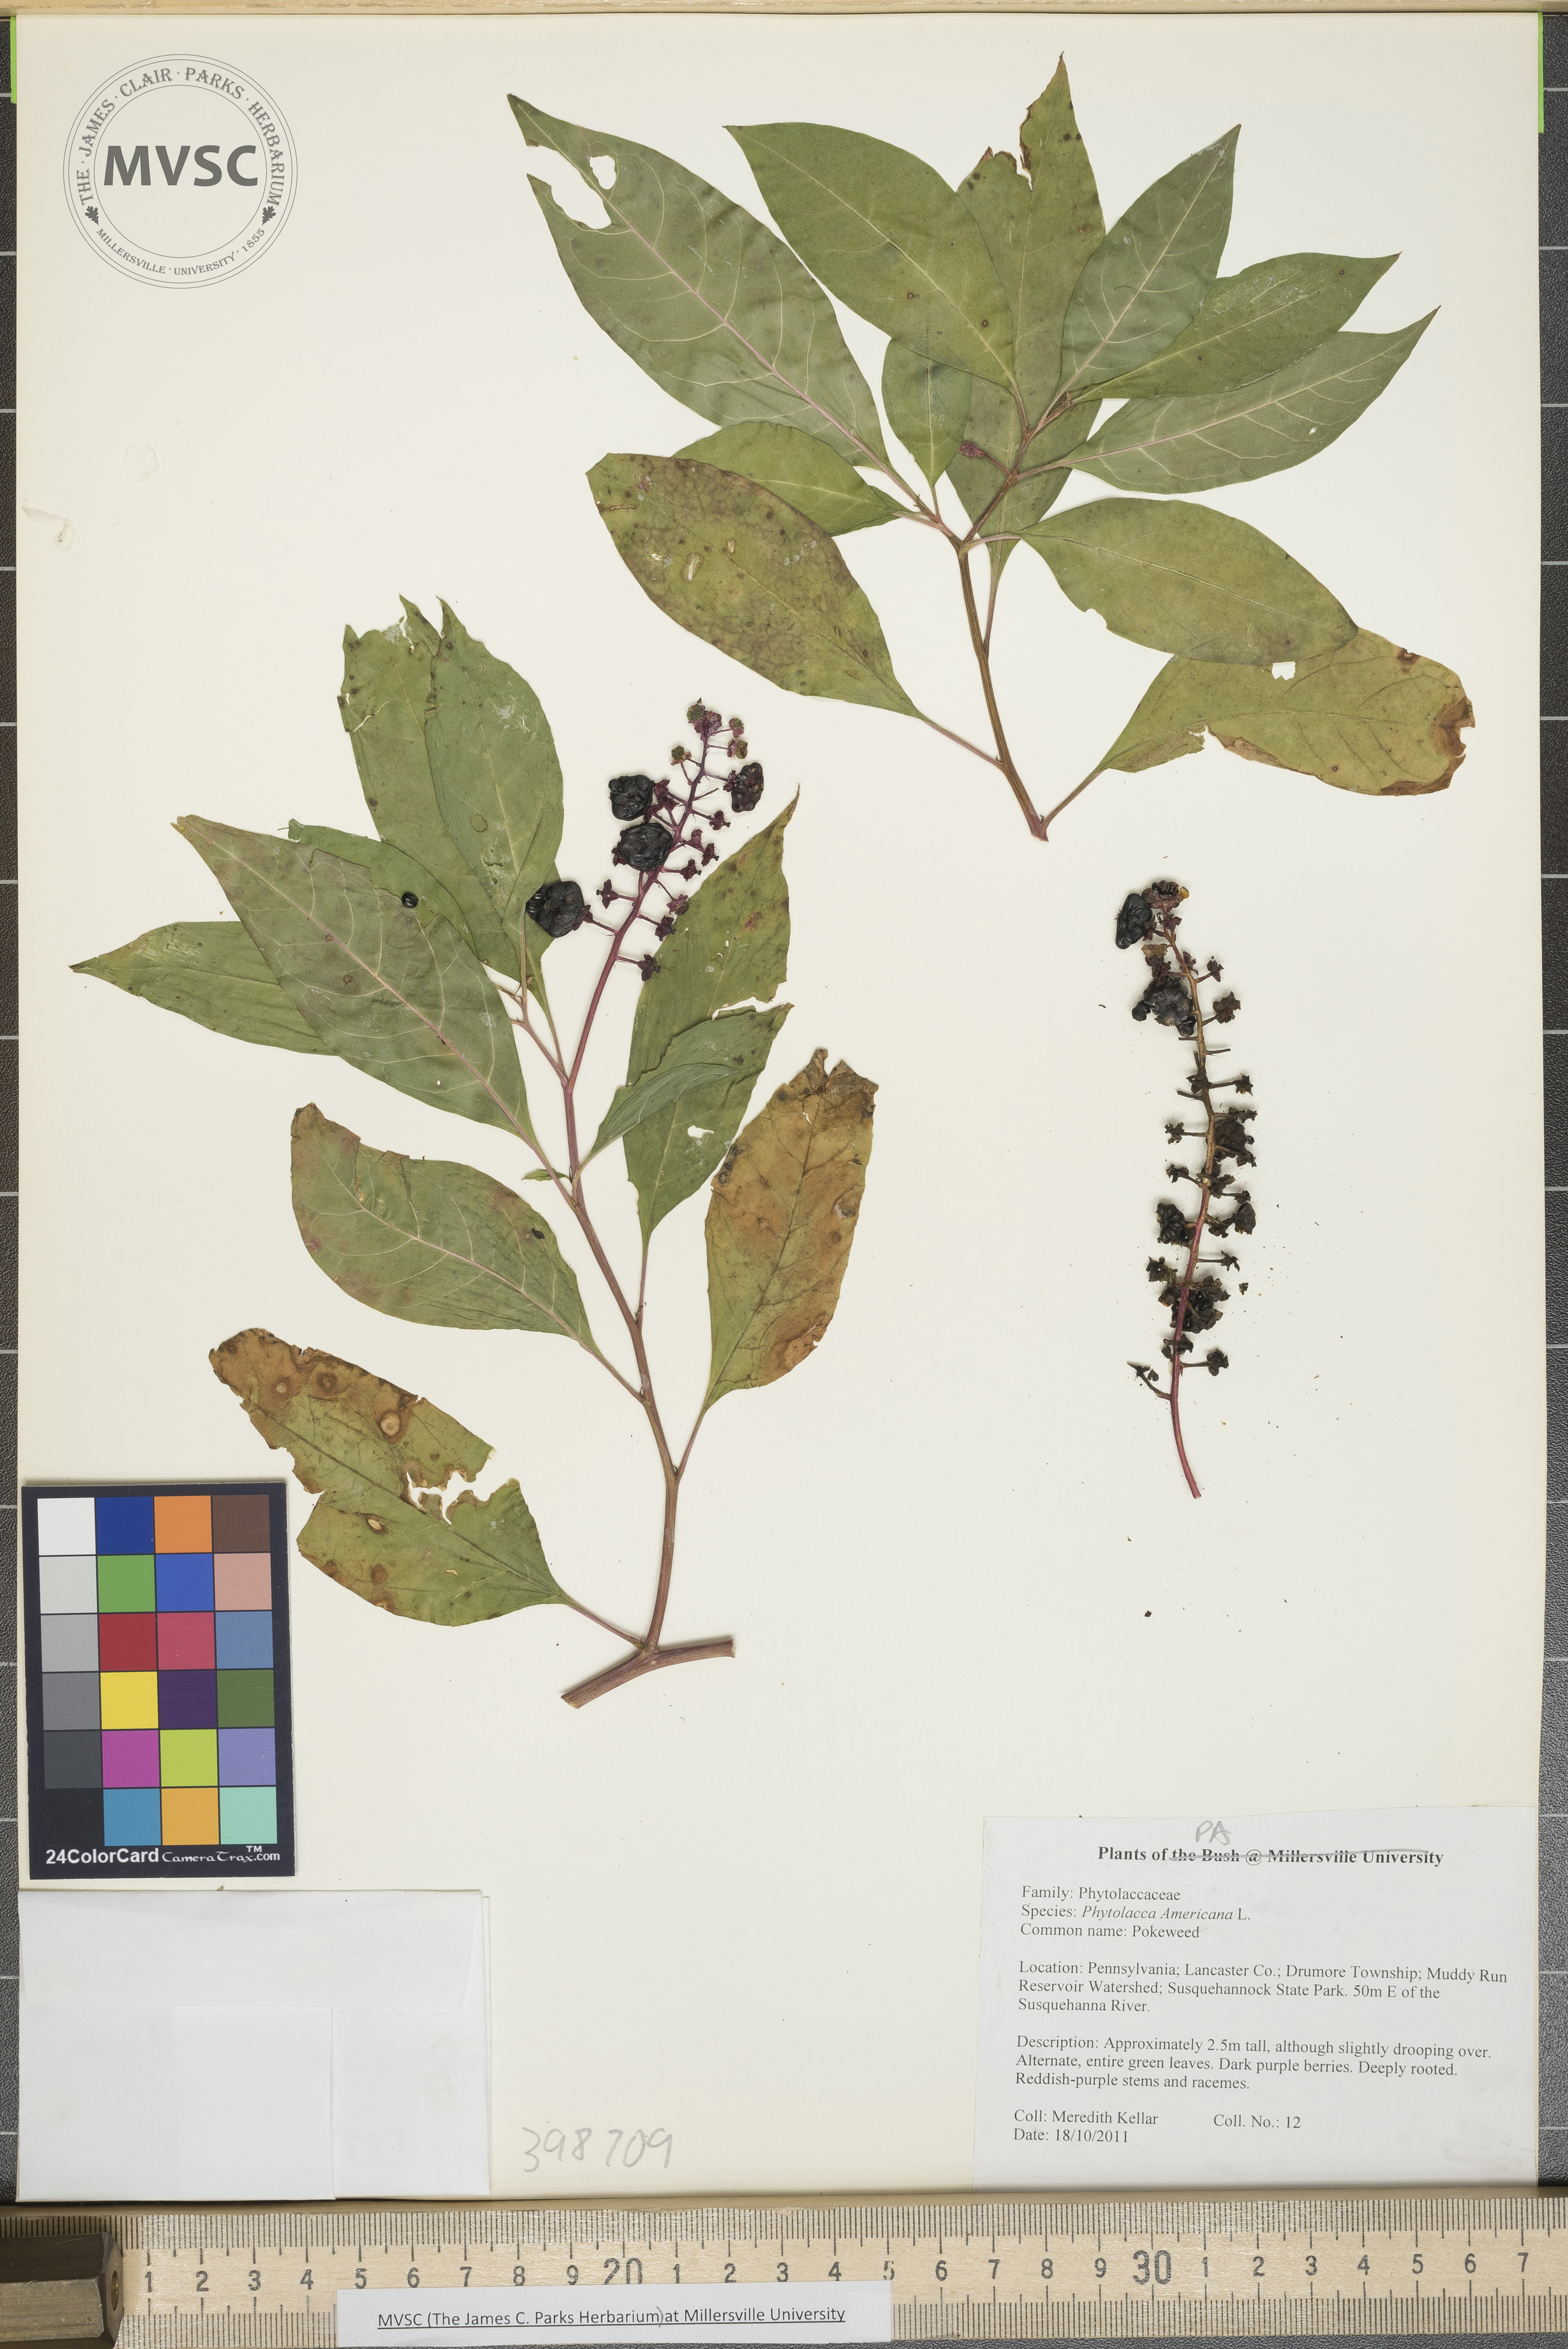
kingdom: Plantae
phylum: Tracheophyta
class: Magnoliopsida
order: Caryophyllales
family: Phytolaccaceae
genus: Phytolacca
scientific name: Phytolacca americana
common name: Pokeweed
